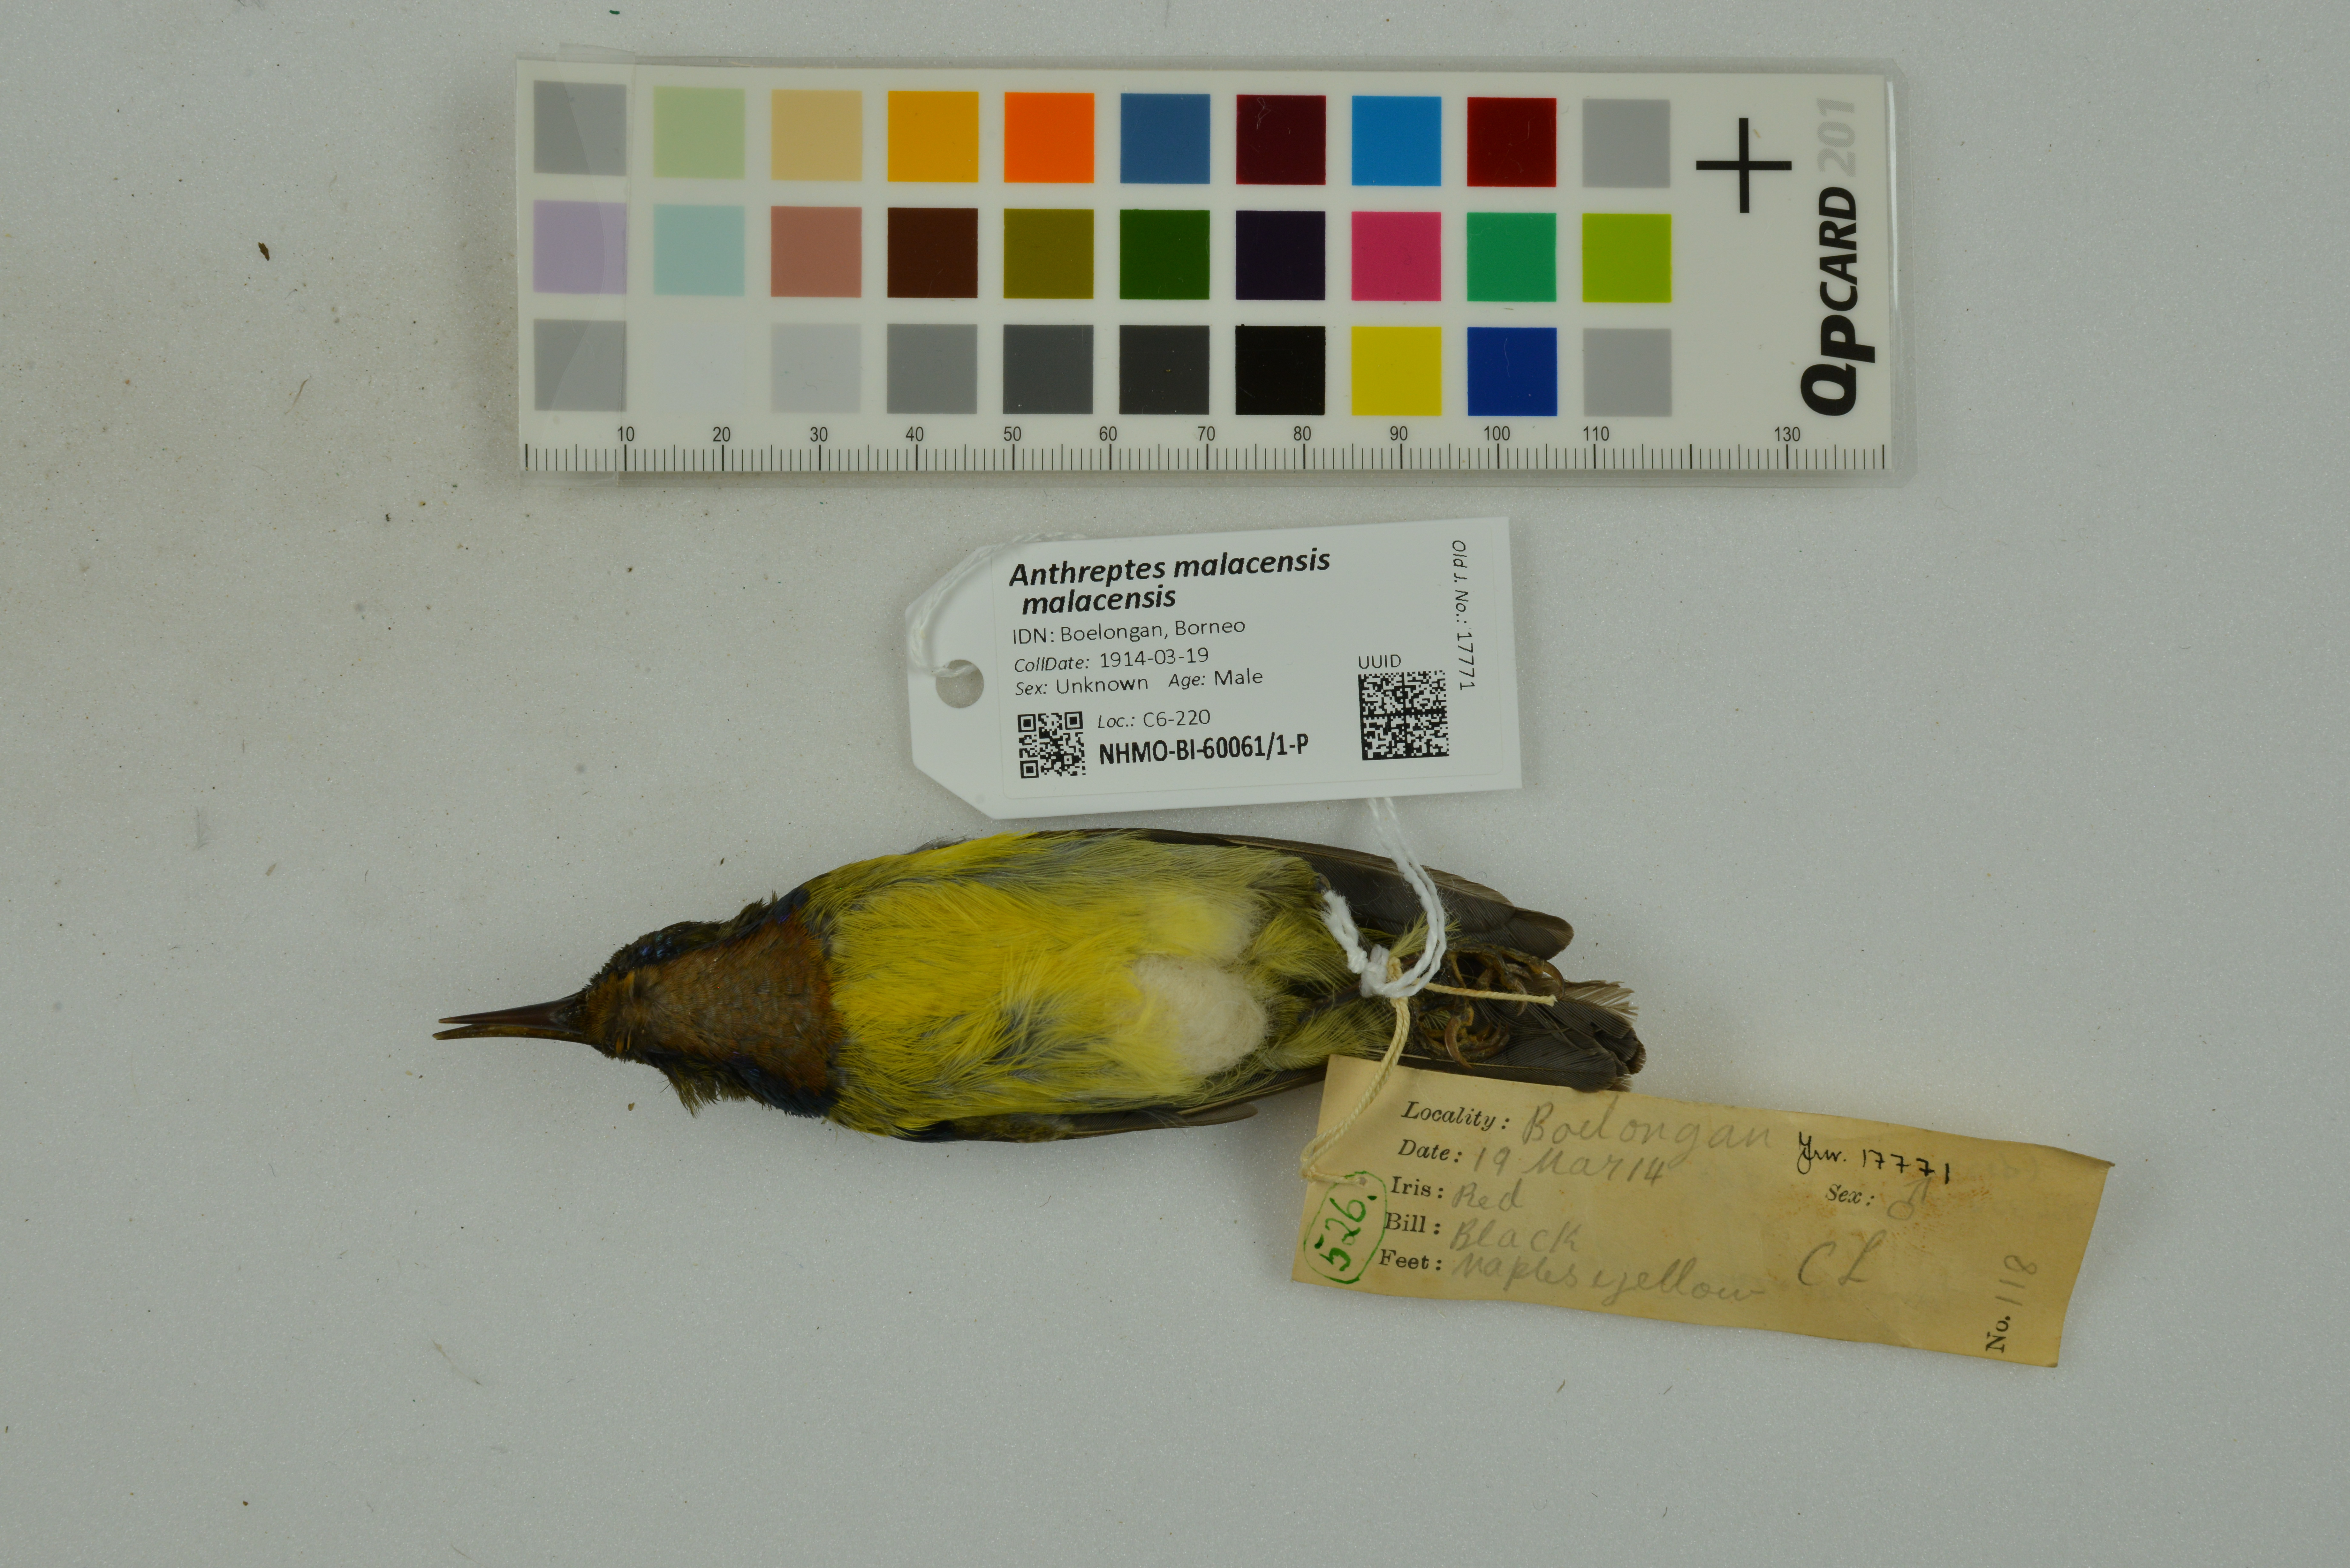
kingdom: Animalia
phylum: Chordata
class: Aves
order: Passeriformes
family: Nectariniidae
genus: Anthreptes
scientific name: Anthreptes malacensis
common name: Brown-throated sunbird
